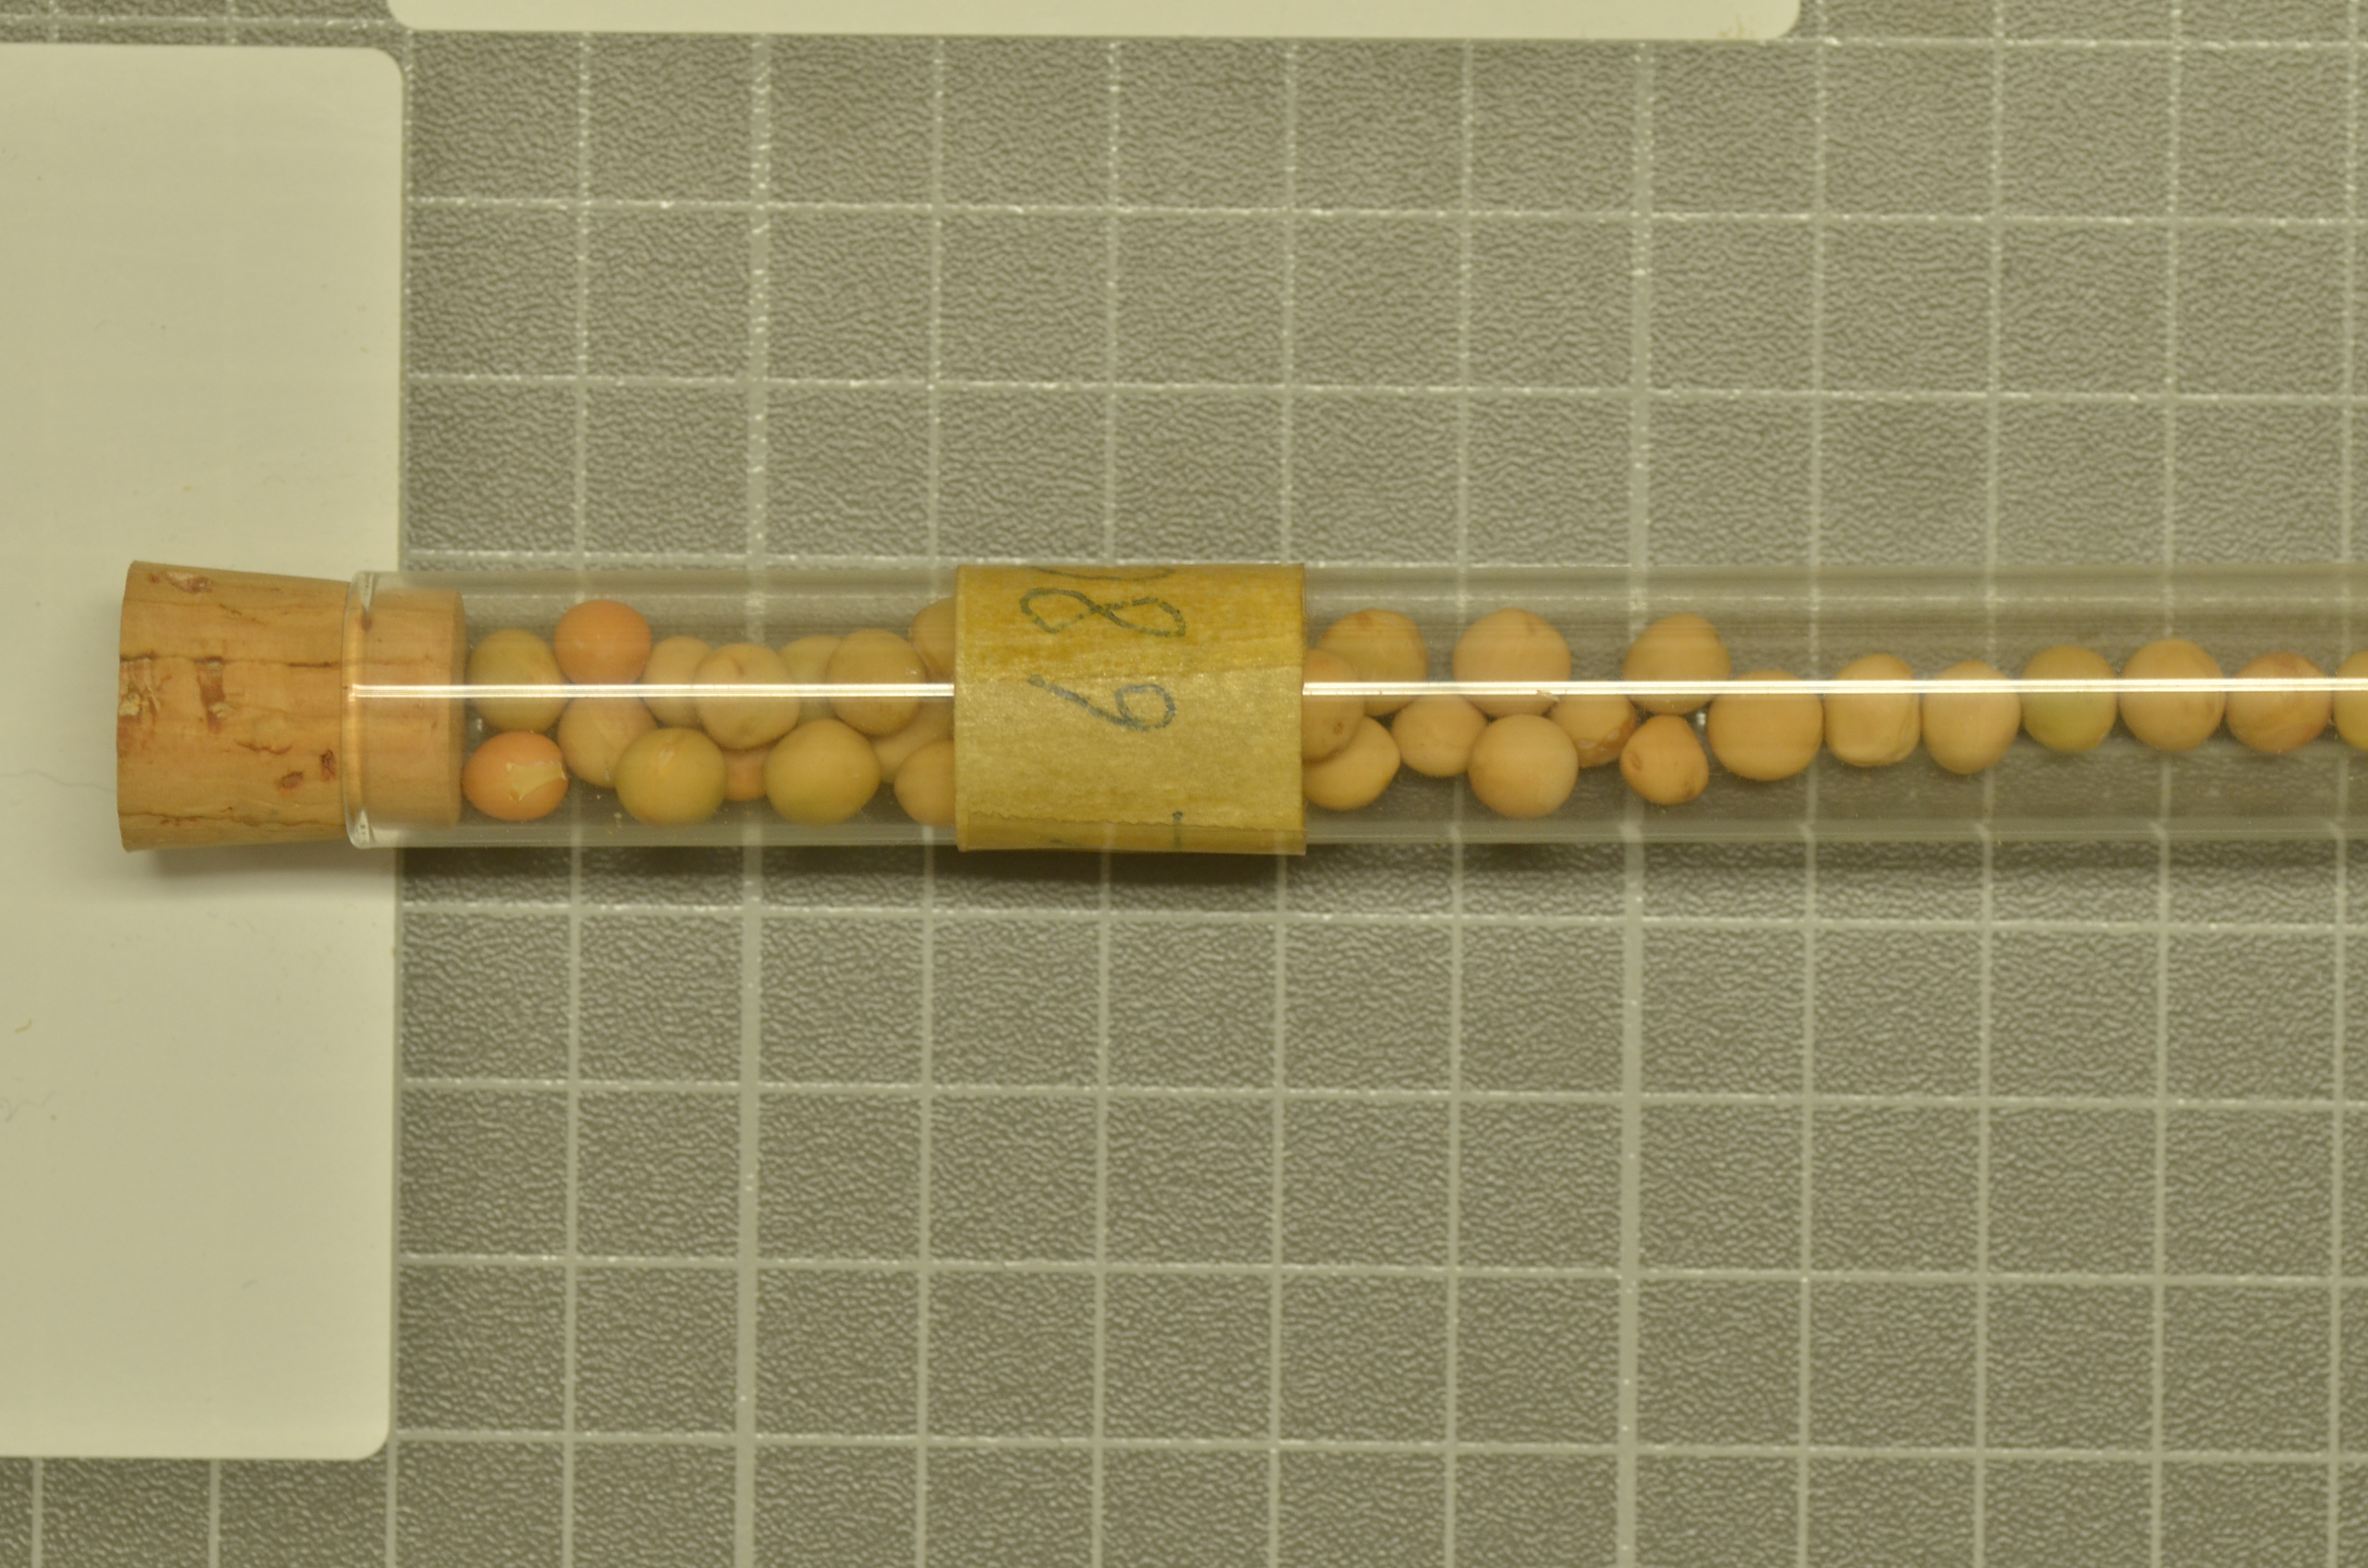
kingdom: Plantae
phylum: Tracheophyta
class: Magnoliopsida
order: Fabales
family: Fabaceae
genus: Lathyrus
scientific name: Lathyrus oleraceus
